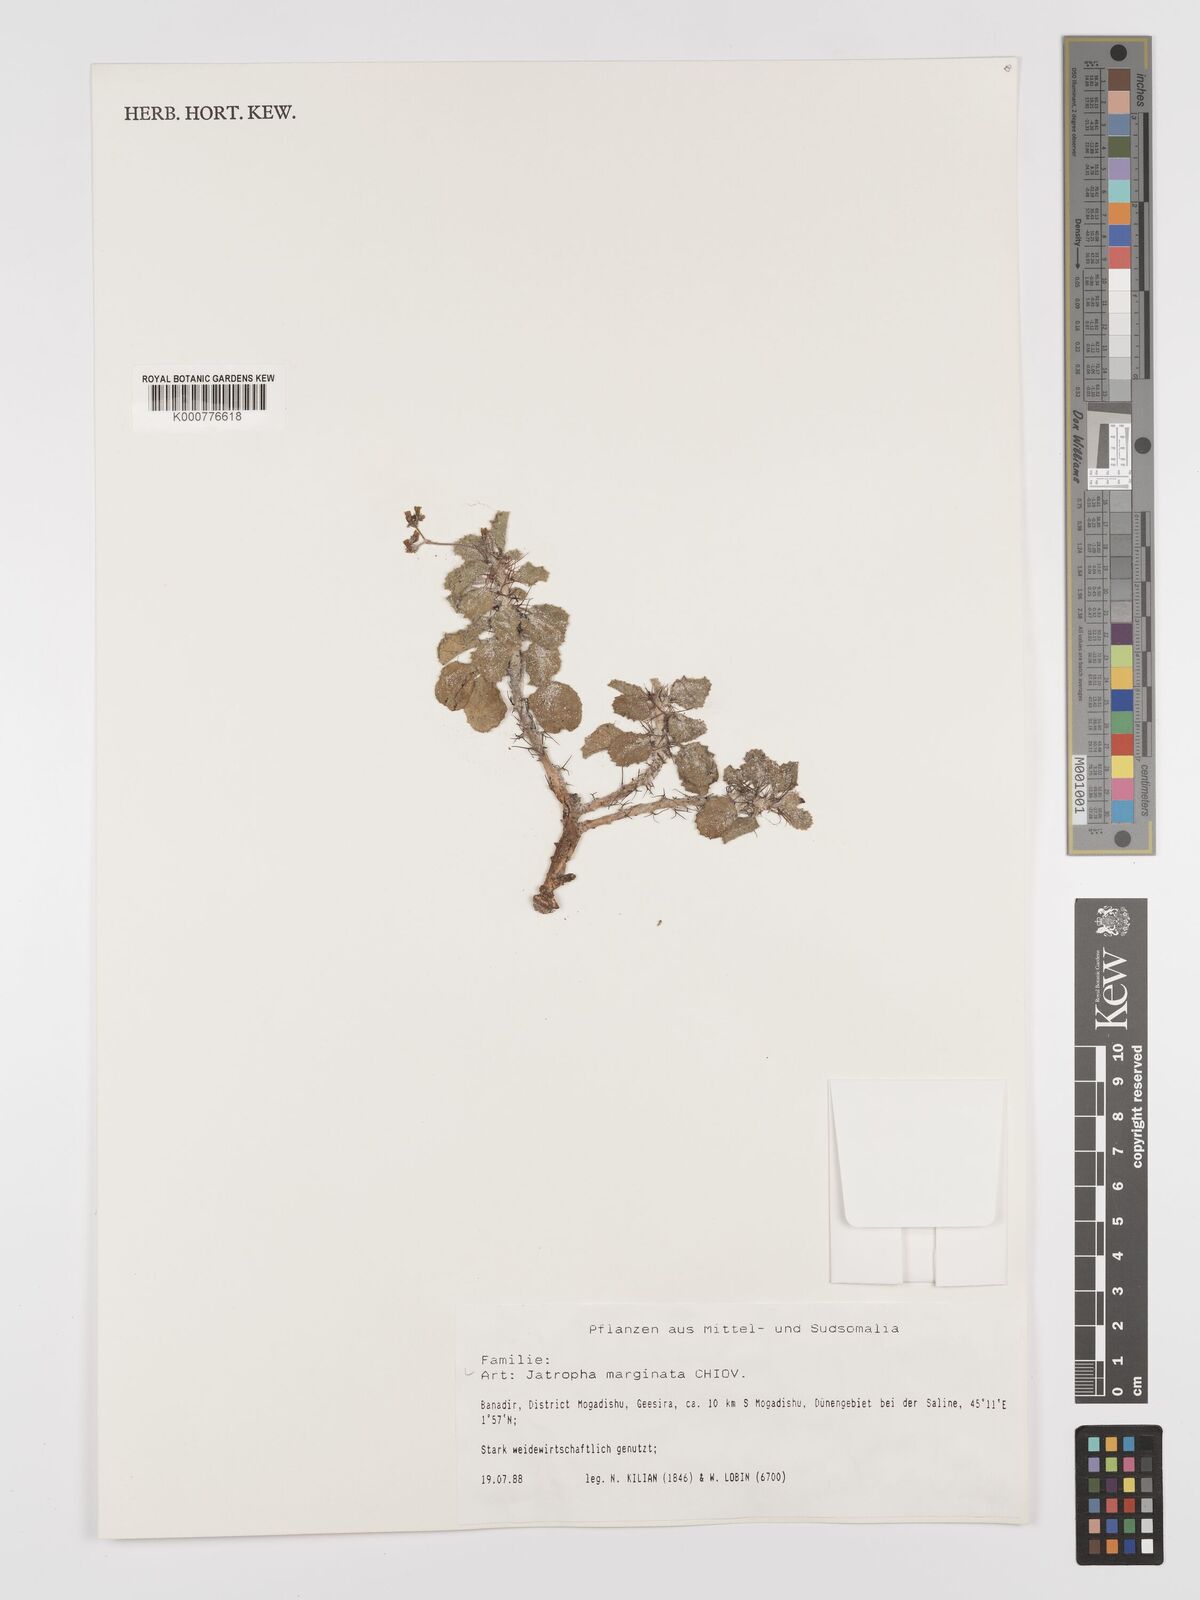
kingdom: Plantae
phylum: Tracheophyta
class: Magnoliopsida
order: Malpighiales
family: Euphorbiaceae
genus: Jatropha
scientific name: Jatropha
